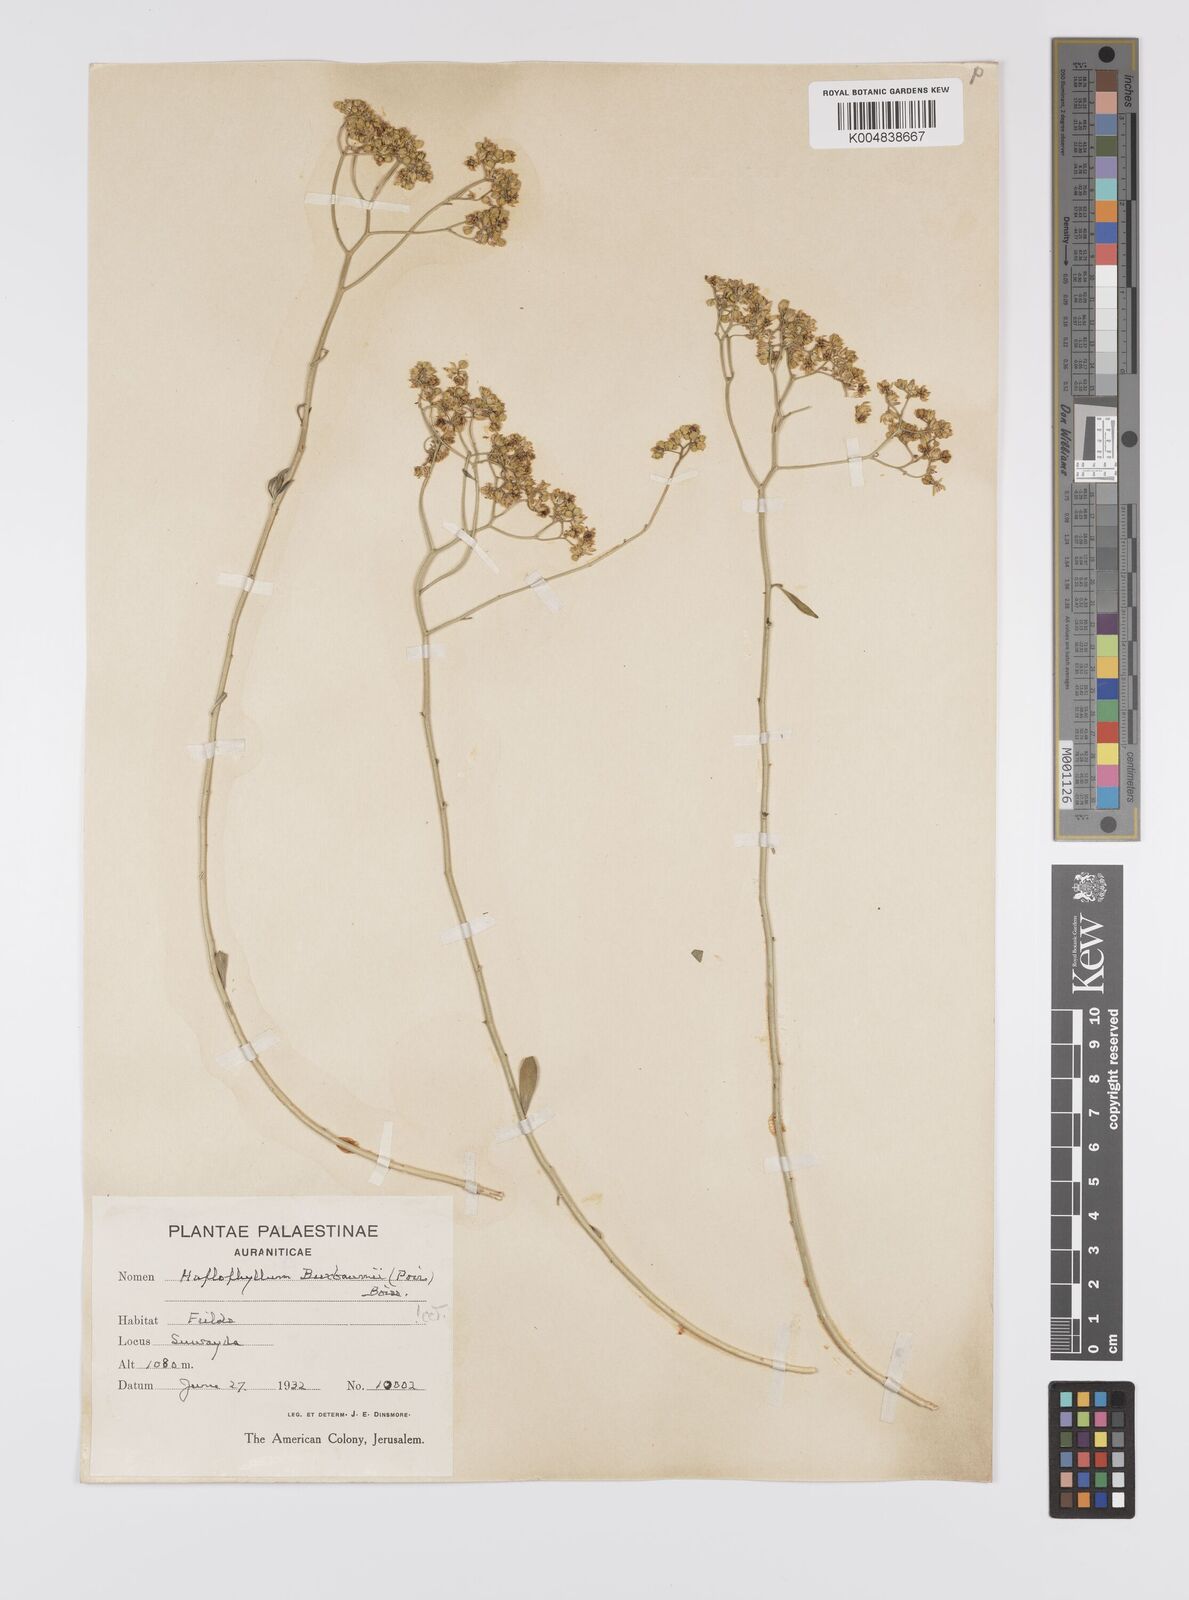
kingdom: Plantae
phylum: Tracheophyta
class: Magnoliopsida
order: Sapindales
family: Rutaceae
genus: Haplophyllum
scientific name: Haplophyllum
